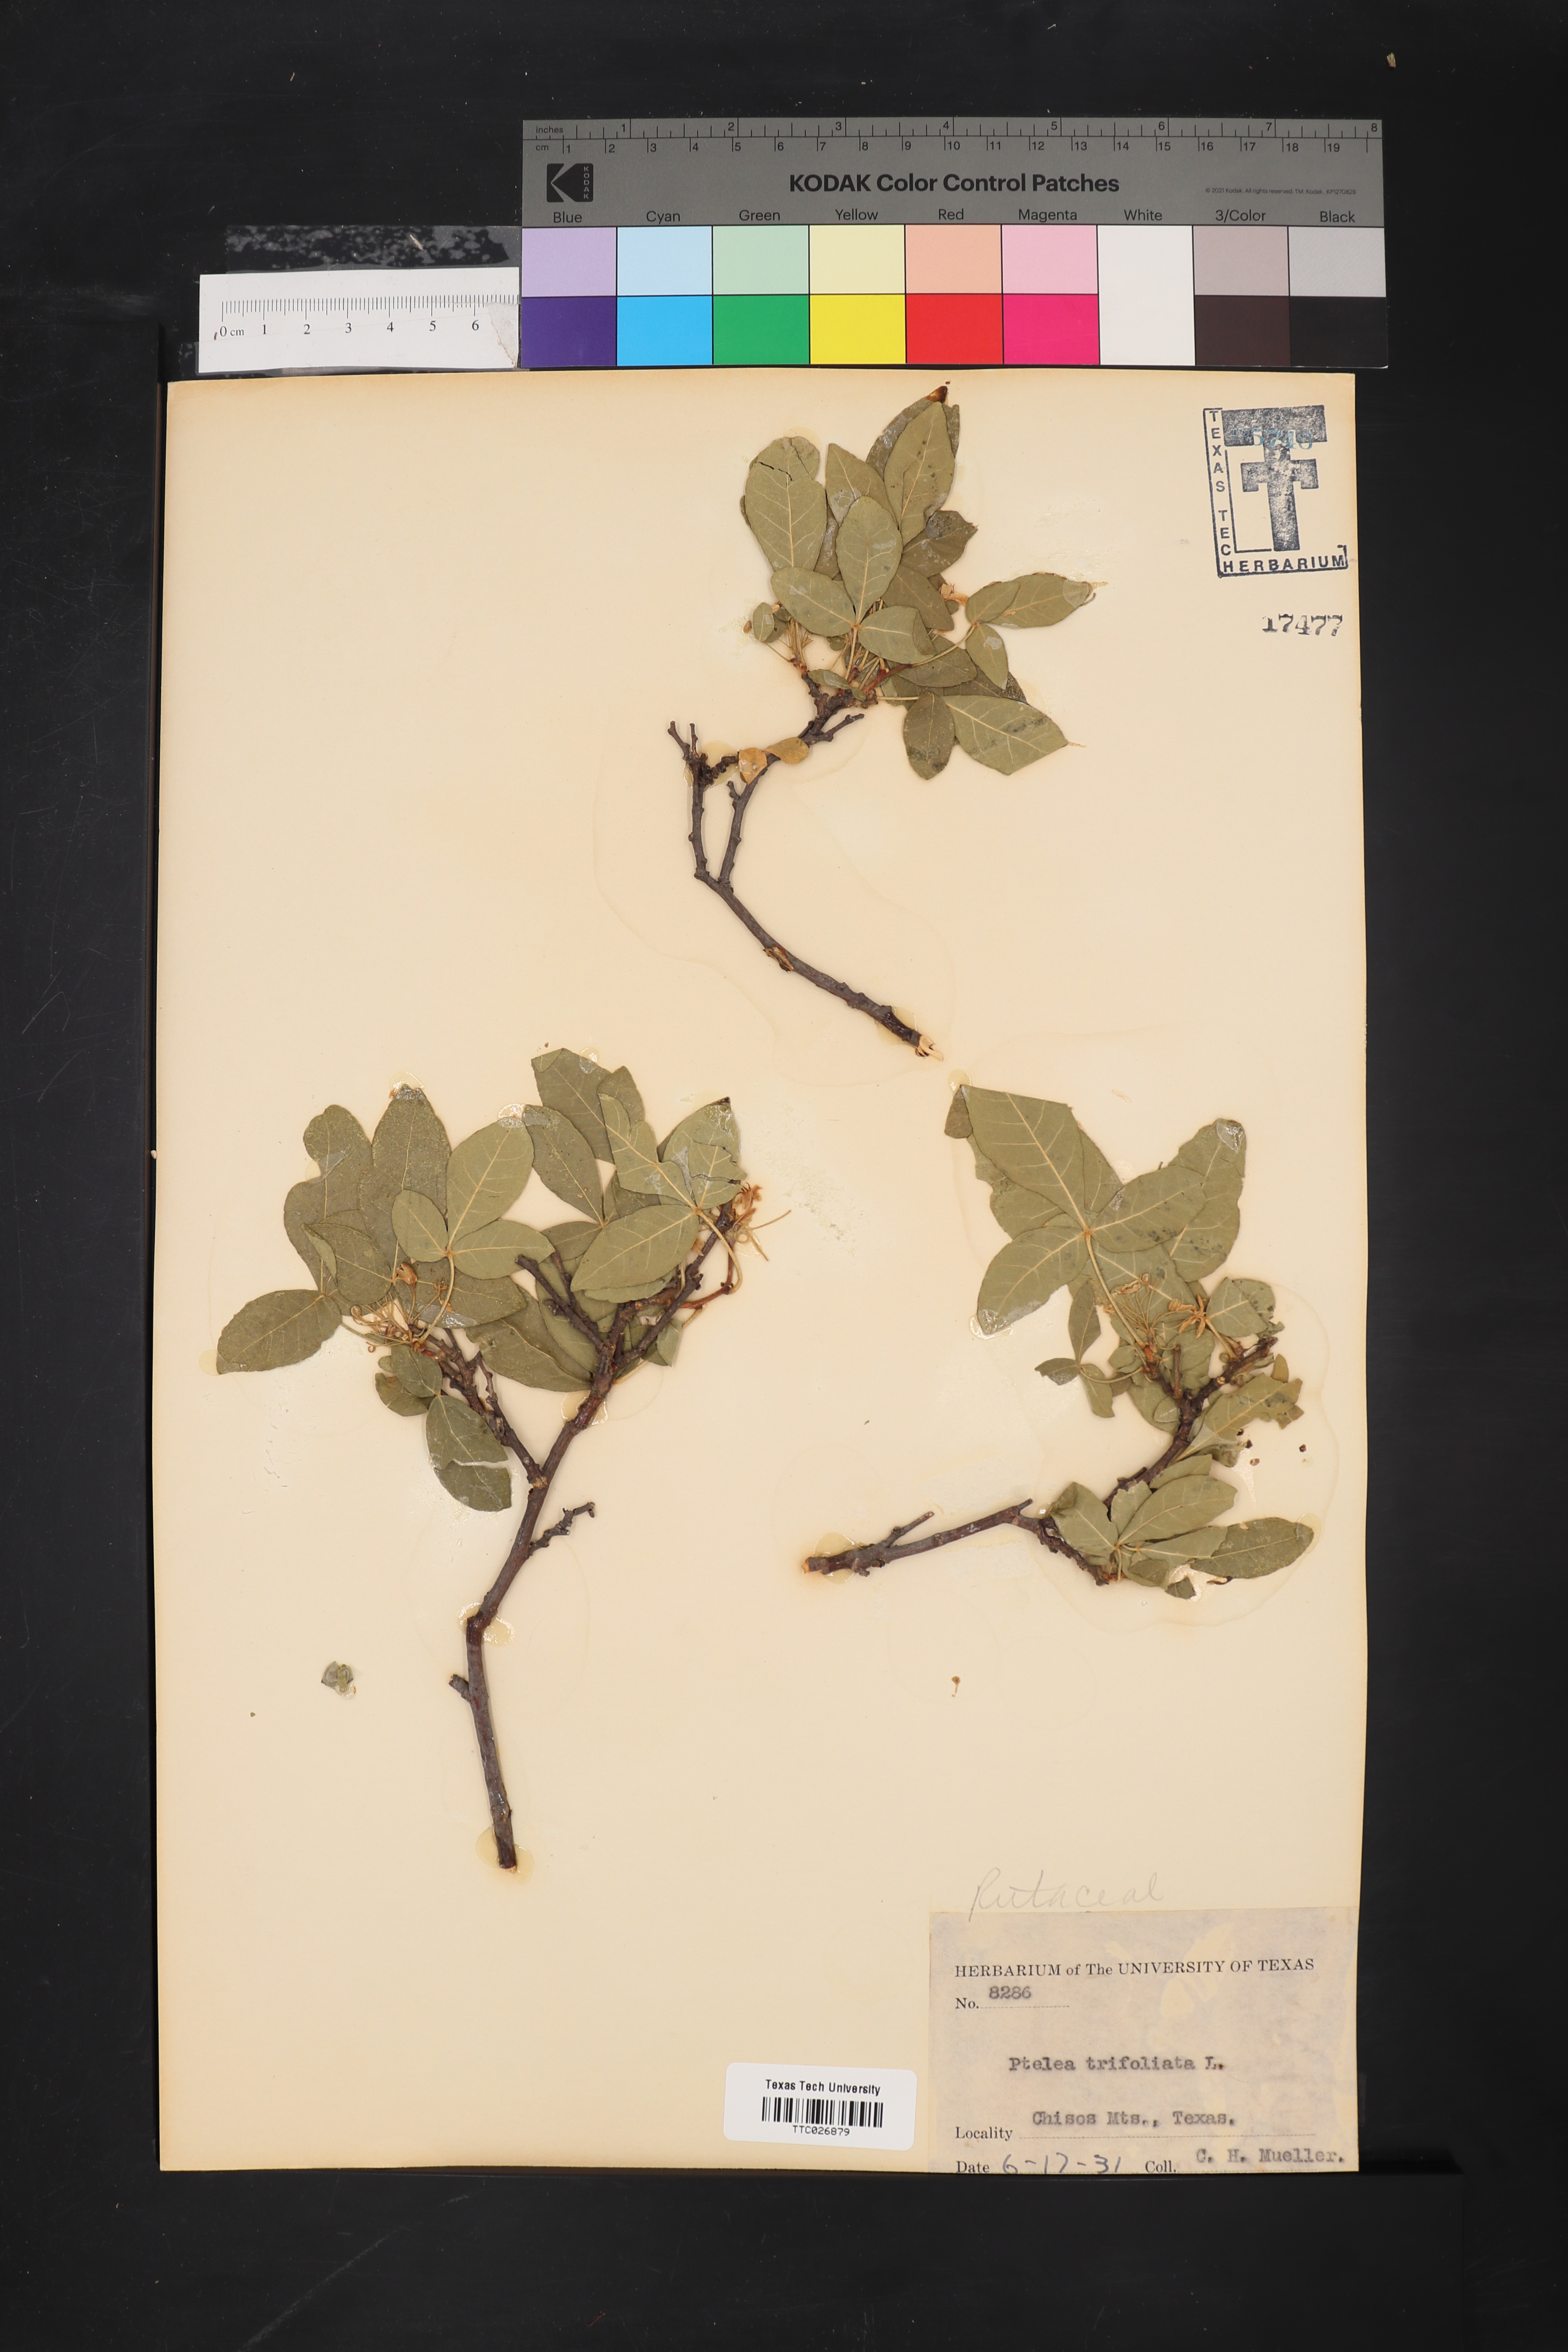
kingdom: Plantae
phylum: Tracheophyta
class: Magnoliopsida
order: Sapindales
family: Rutaceae
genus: Ptelea
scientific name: Ptelea trifoliata
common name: Common hop-tree
